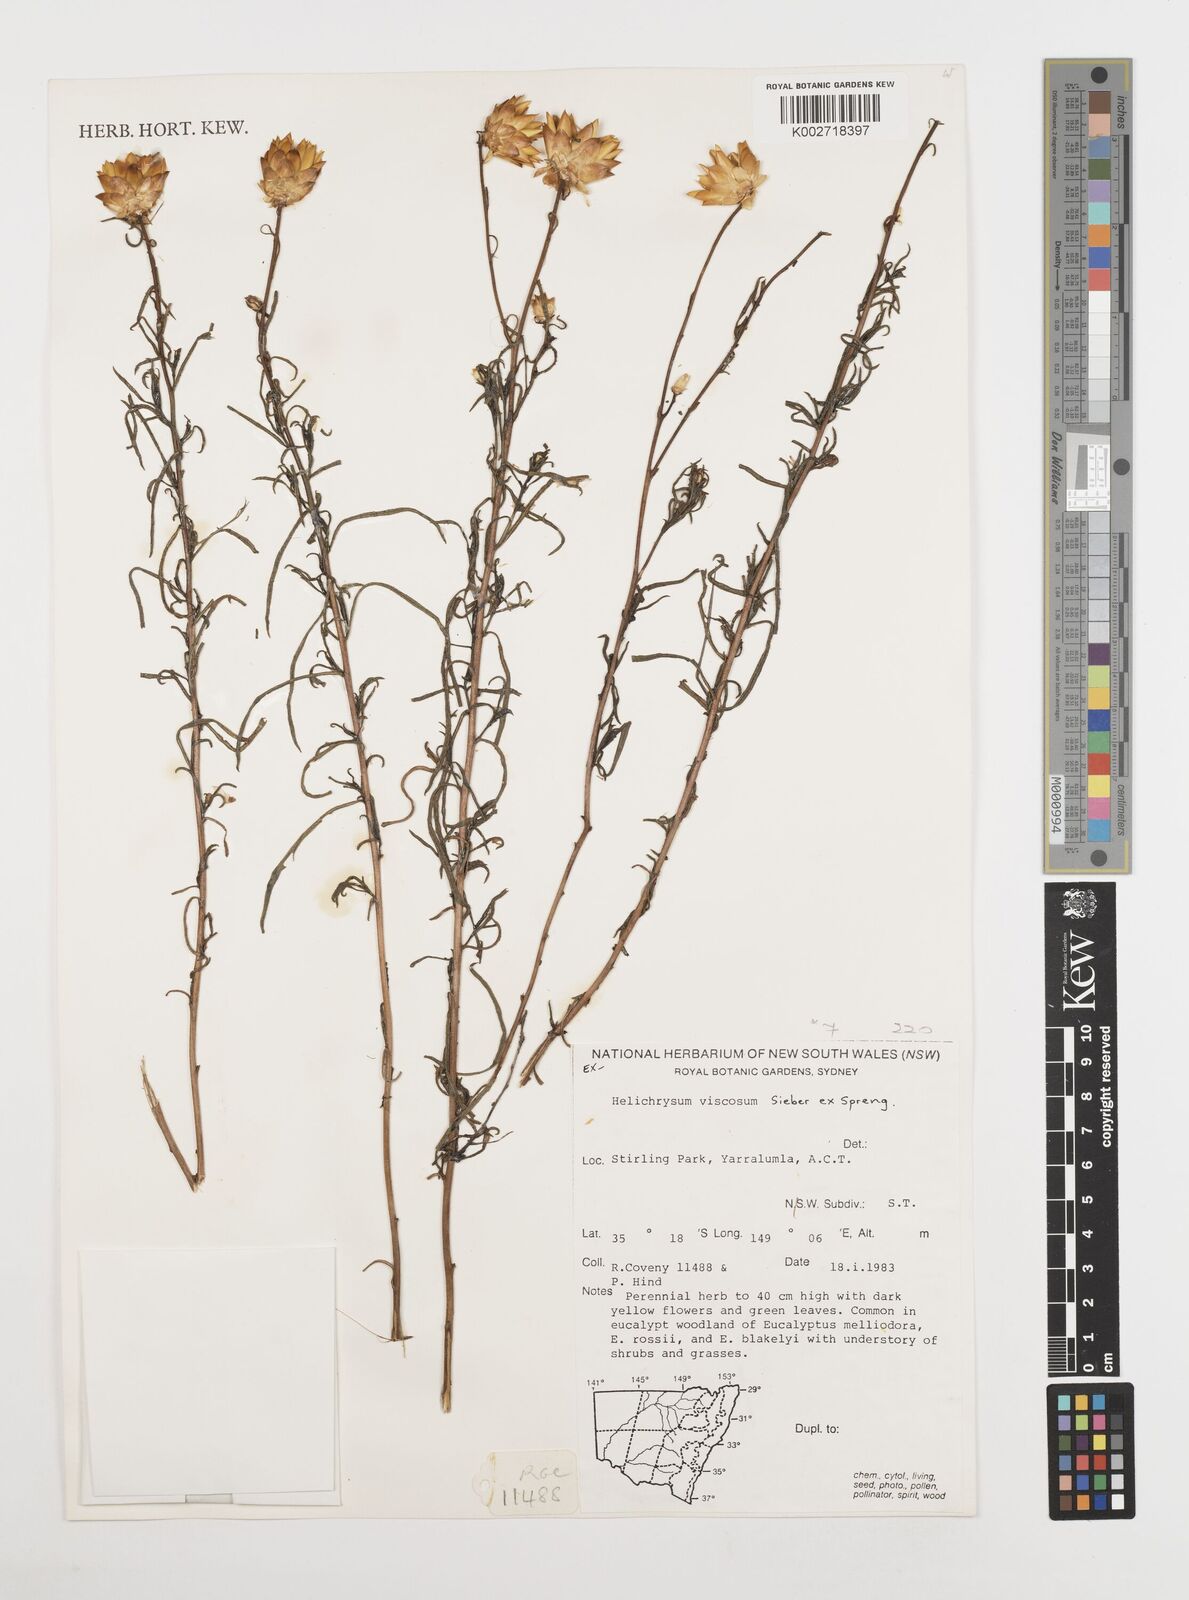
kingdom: Plantae
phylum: Tracheophyta
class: Magnoliopsida
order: Asterales
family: Asteraceae
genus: Xerochrysum
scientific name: Xerochrysum viscosum
